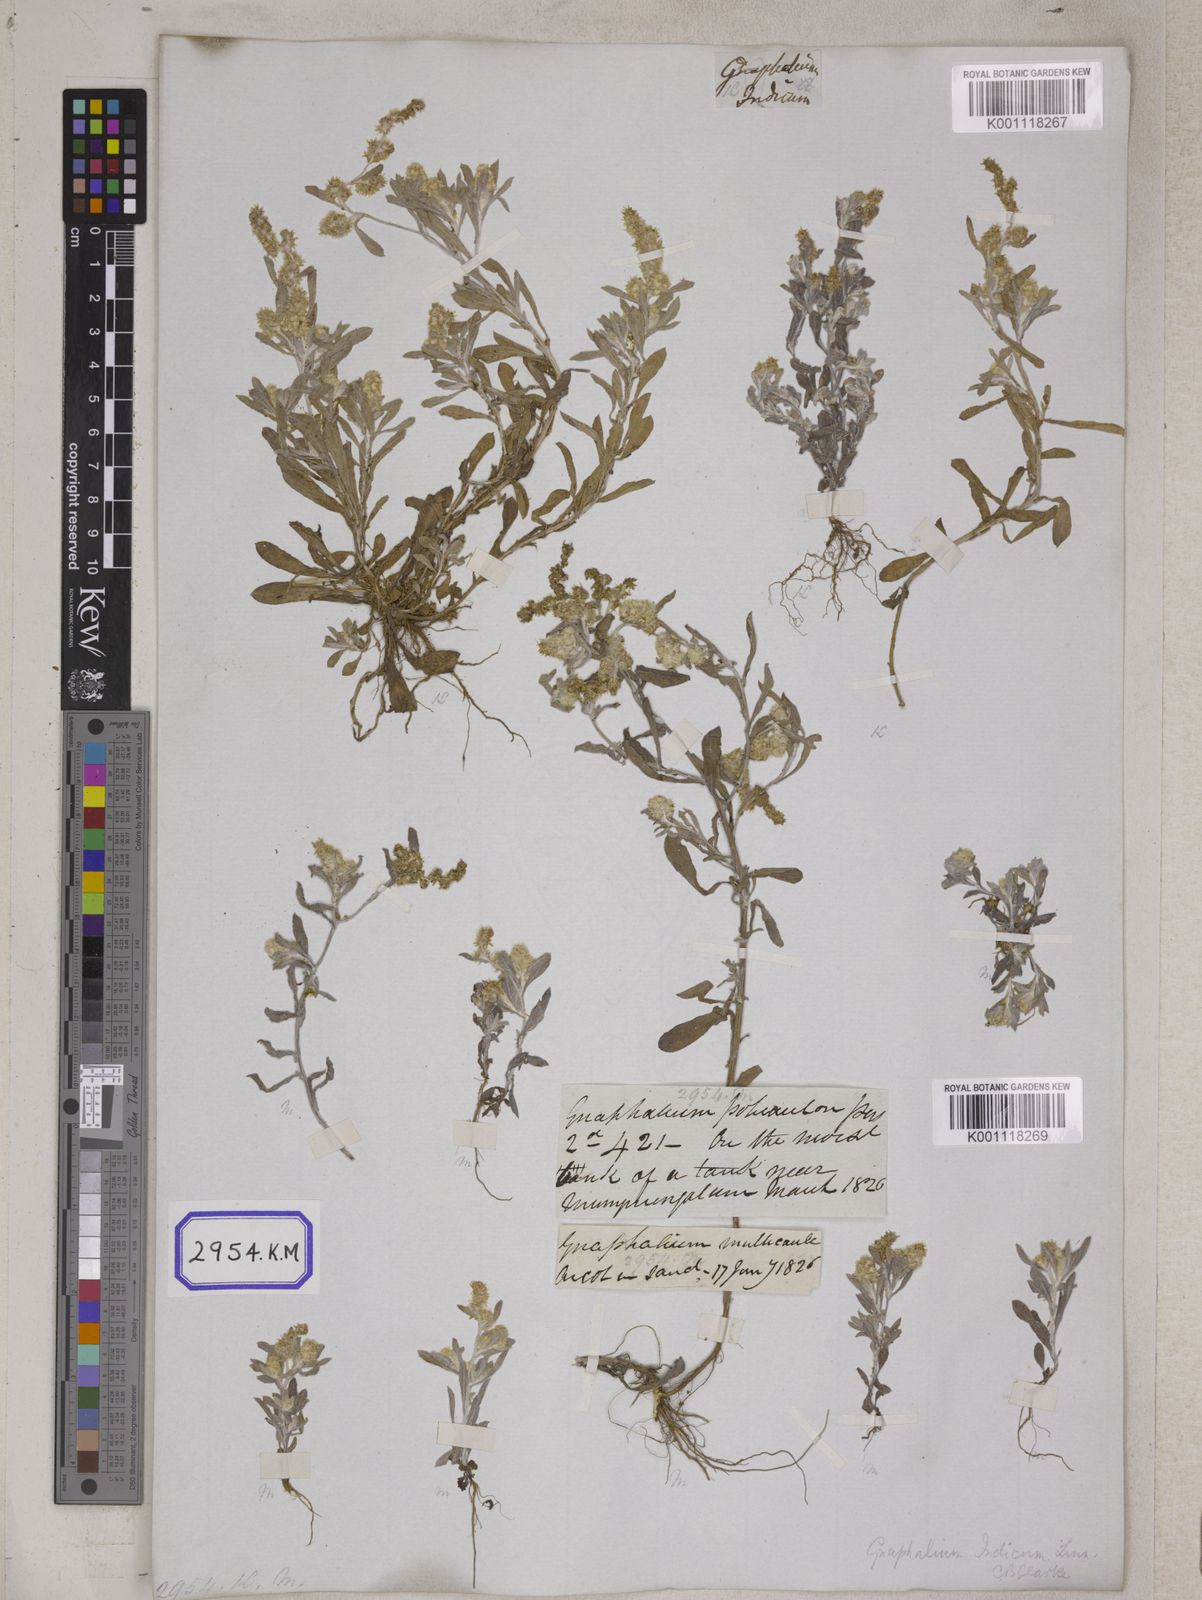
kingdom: Plantae
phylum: Tracheophyta
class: Magnoliopsida
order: Asterales
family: Asteraceae
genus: Helichrysum
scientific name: Helichrysum indicum
